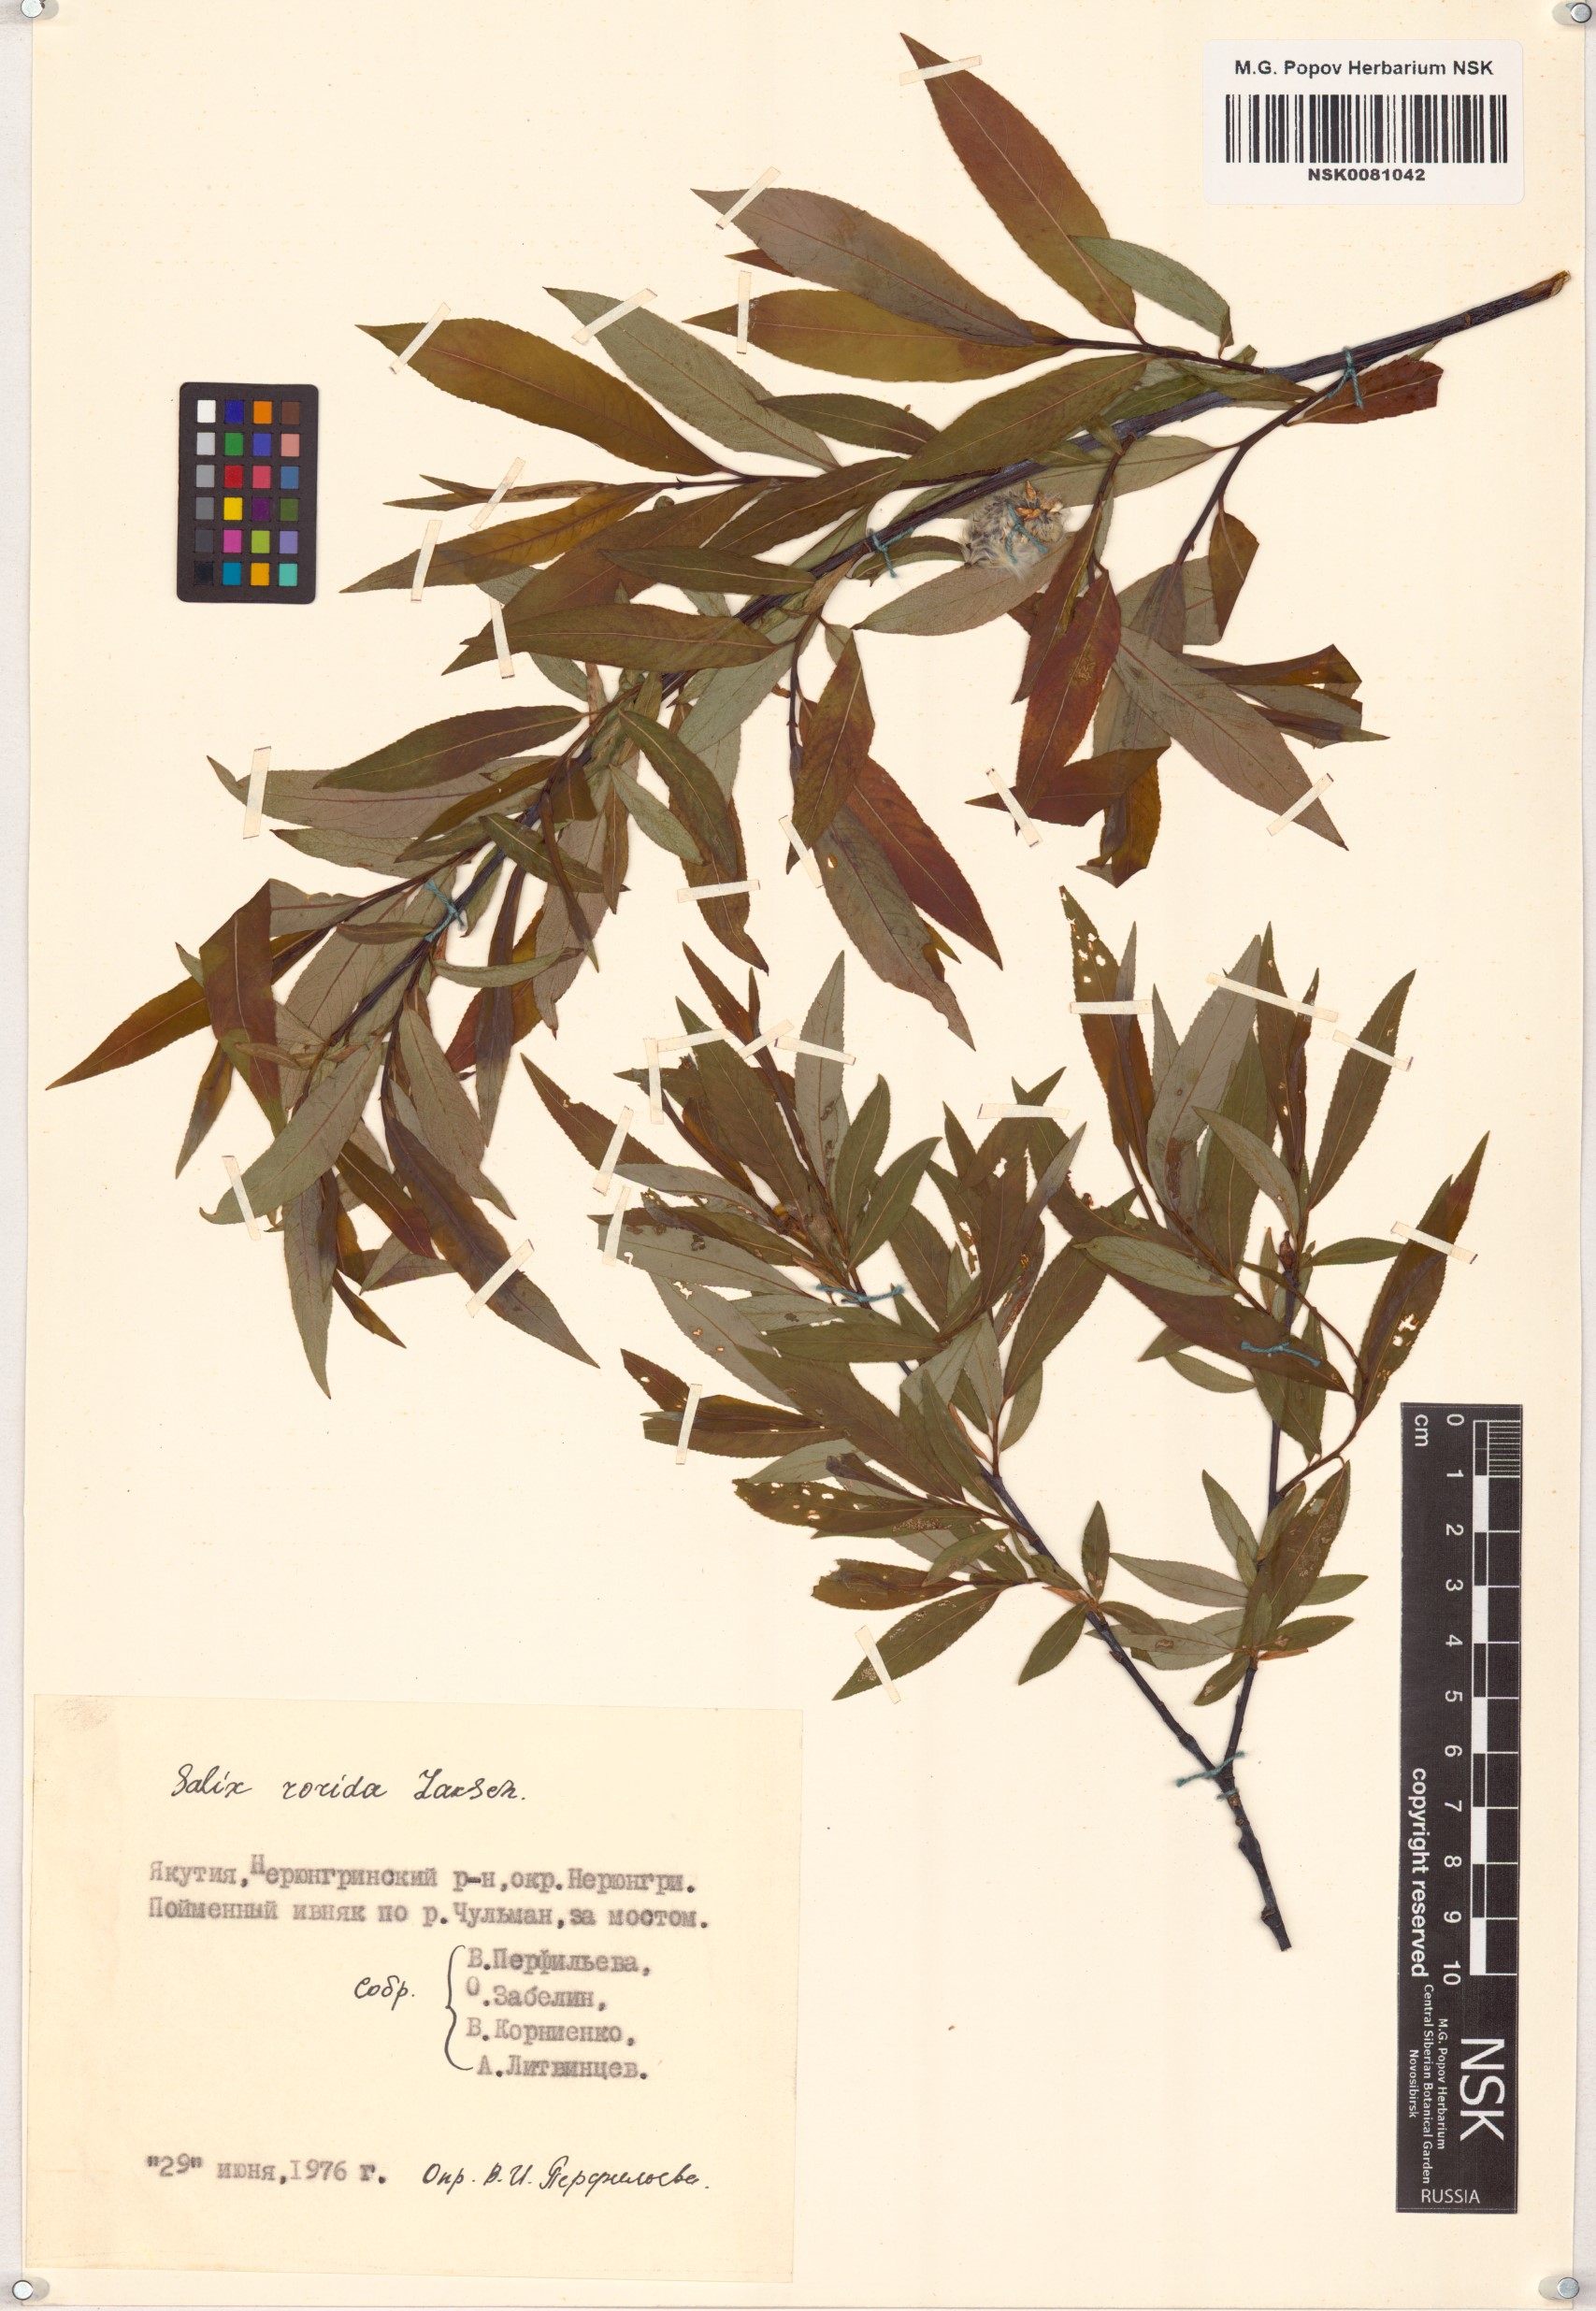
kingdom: Plantae
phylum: Tracheophyta
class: Magnoliopsida
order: Malpighiales
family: Salicaceae
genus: Salix
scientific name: Salix rorida
